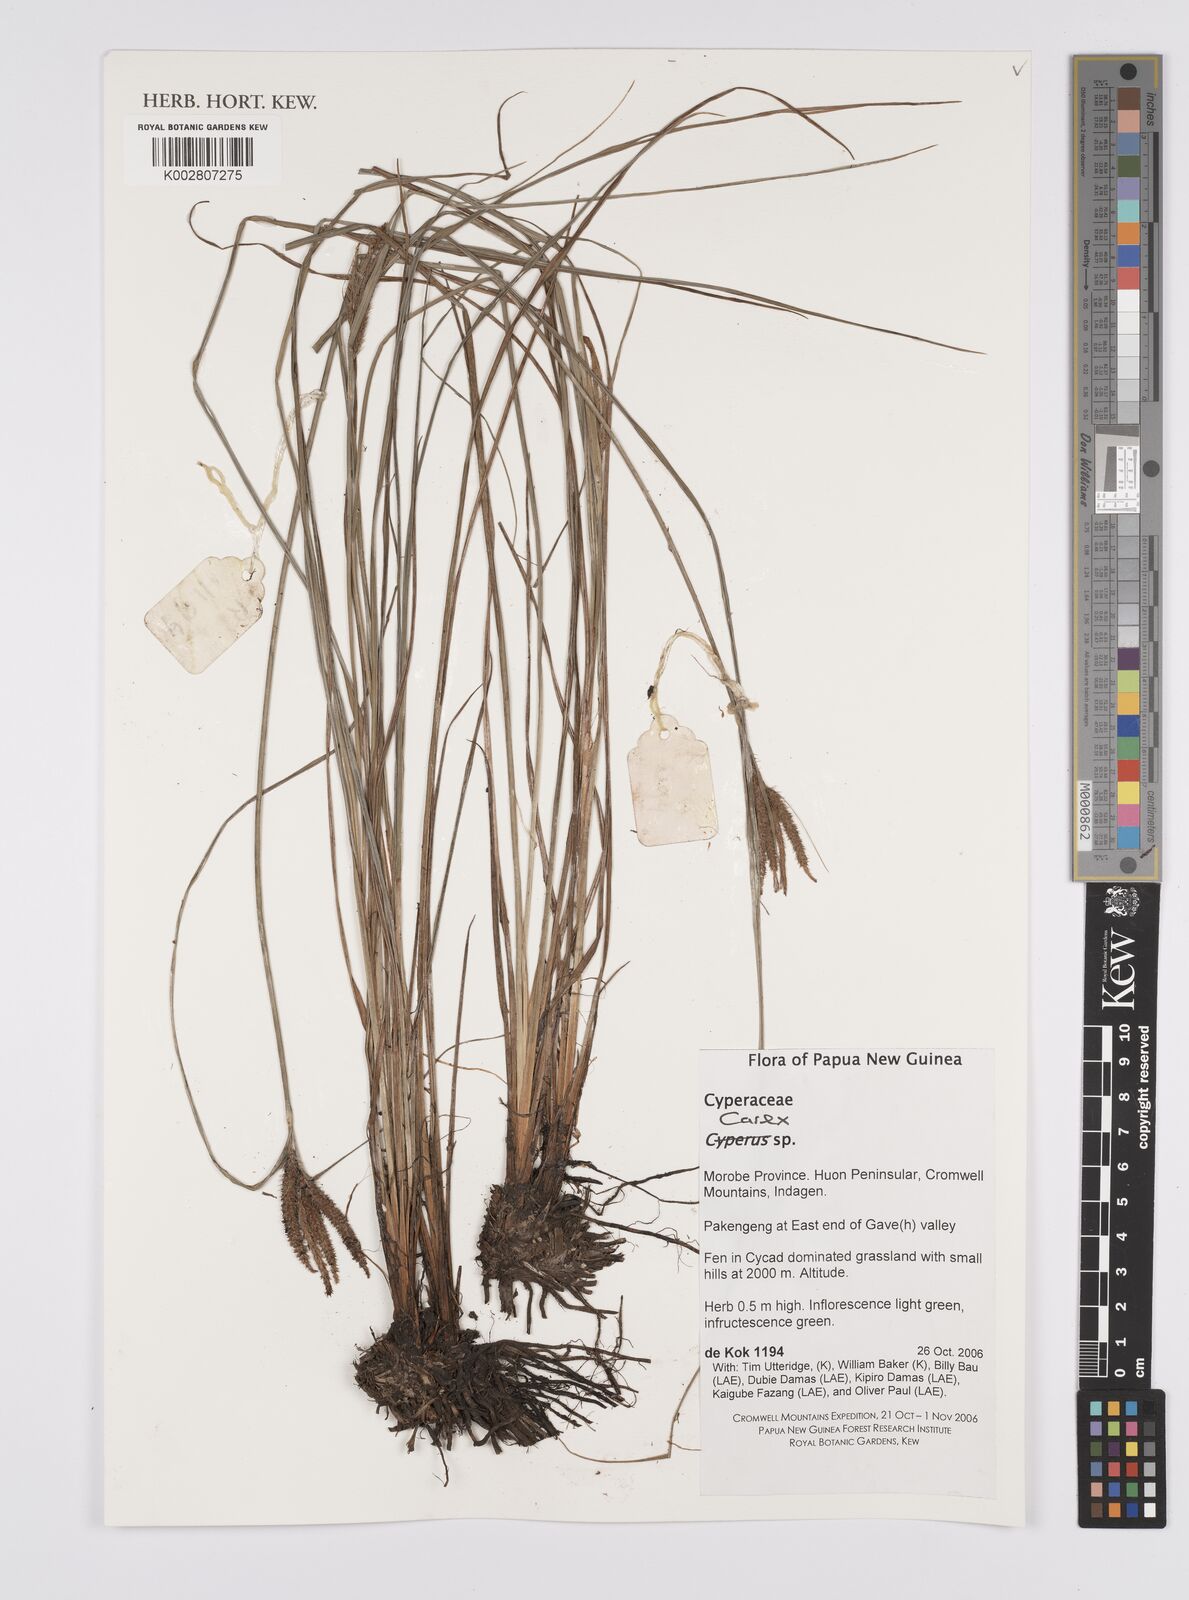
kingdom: Plantae
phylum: Tracheophyta
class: Liliopsida
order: Poales
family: Cyperaceae
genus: Carex
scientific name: Carex
